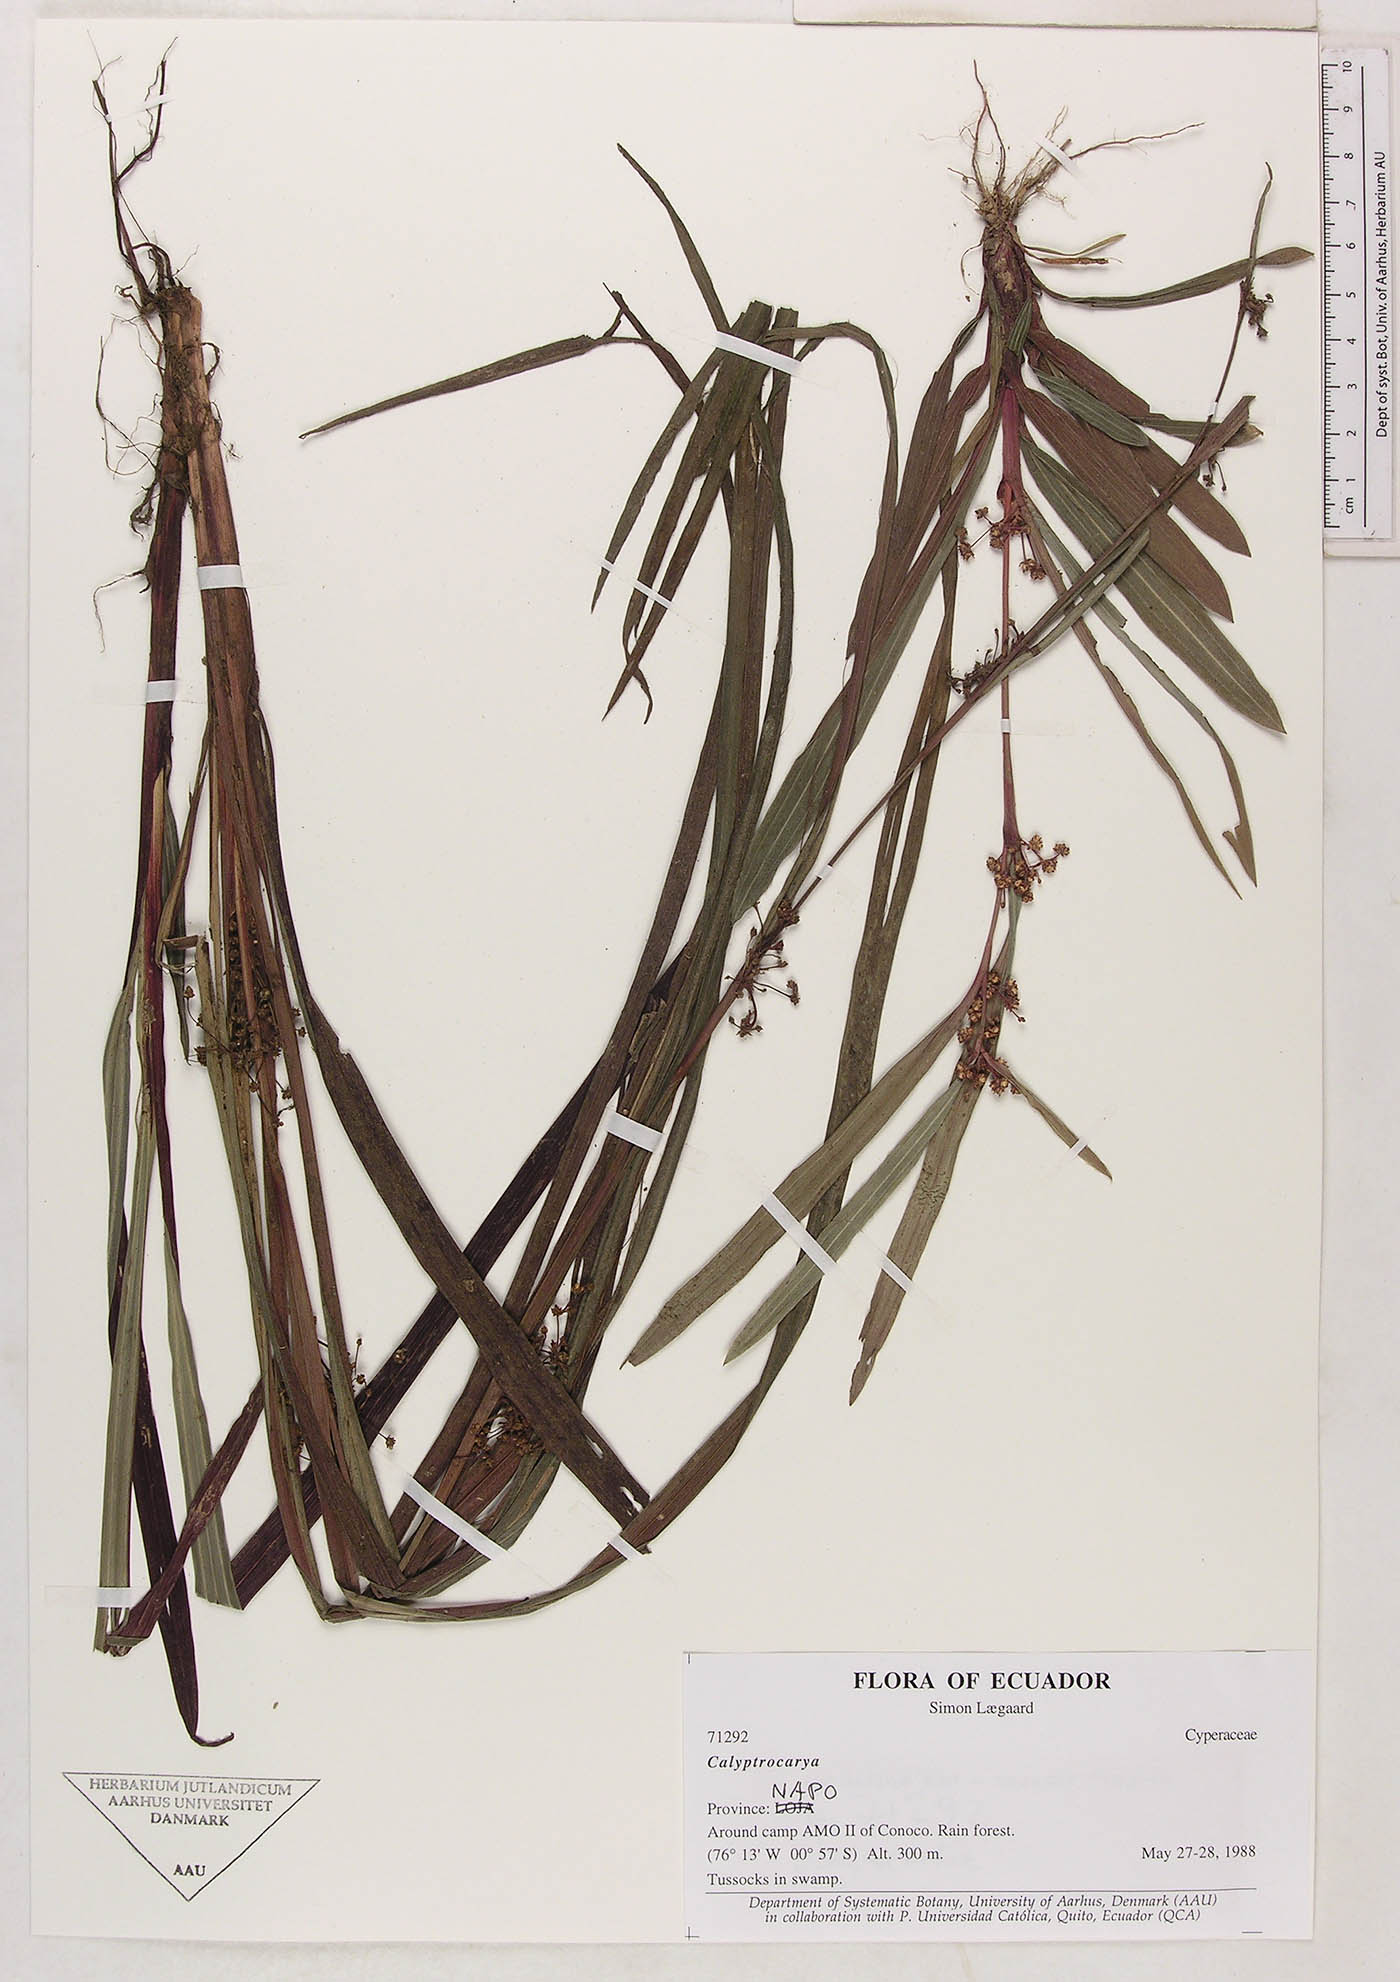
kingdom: Plantae
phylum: Tracheophyta
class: Liliopsida
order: Poales
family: Cyperaceae
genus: Calyptrocarya
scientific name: Calyptrocarya
